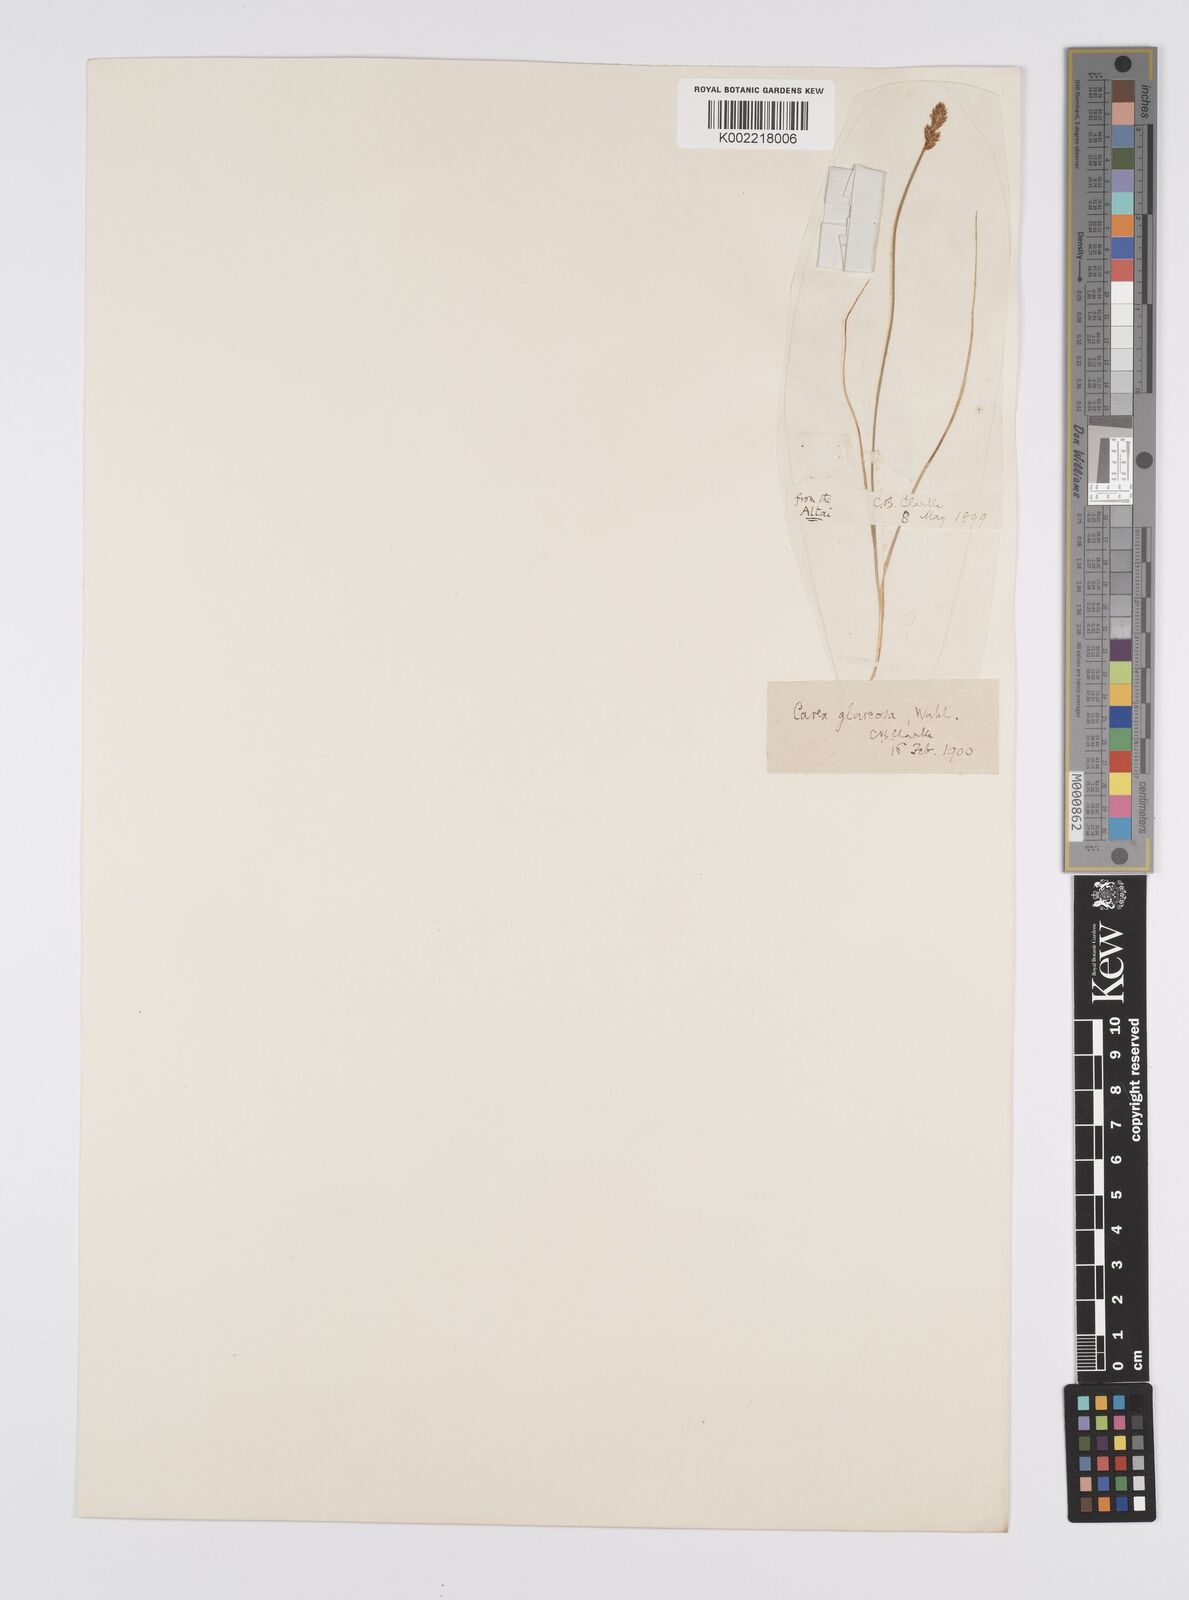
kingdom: Plantae
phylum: Tracheophyta
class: Liliopsida
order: Poales
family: Cyperaceae
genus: Carex
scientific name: Carex glareosa
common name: Clustered sedge
